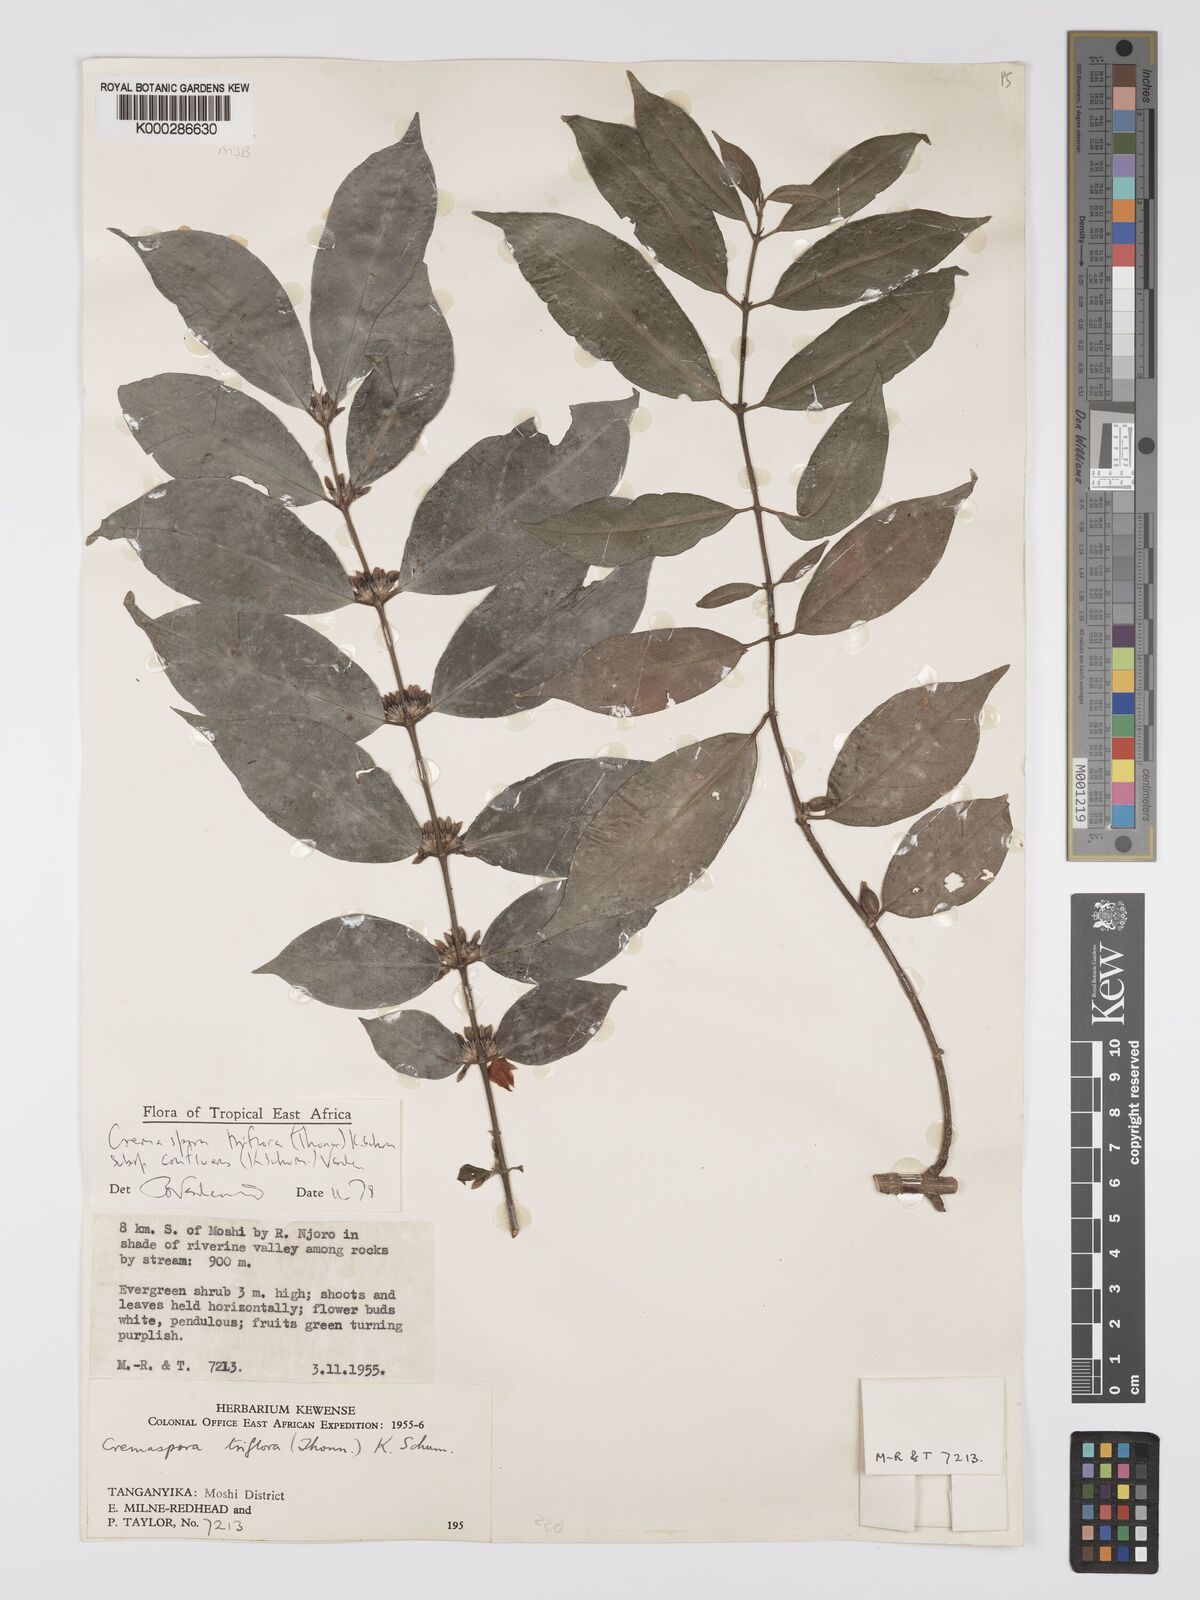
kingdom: Plantae
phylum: Tracheophyta
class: Magnoliopsida
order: Gentianales
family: Rubiaceae
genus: Cremaspora
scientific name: Cremaspora triflora
